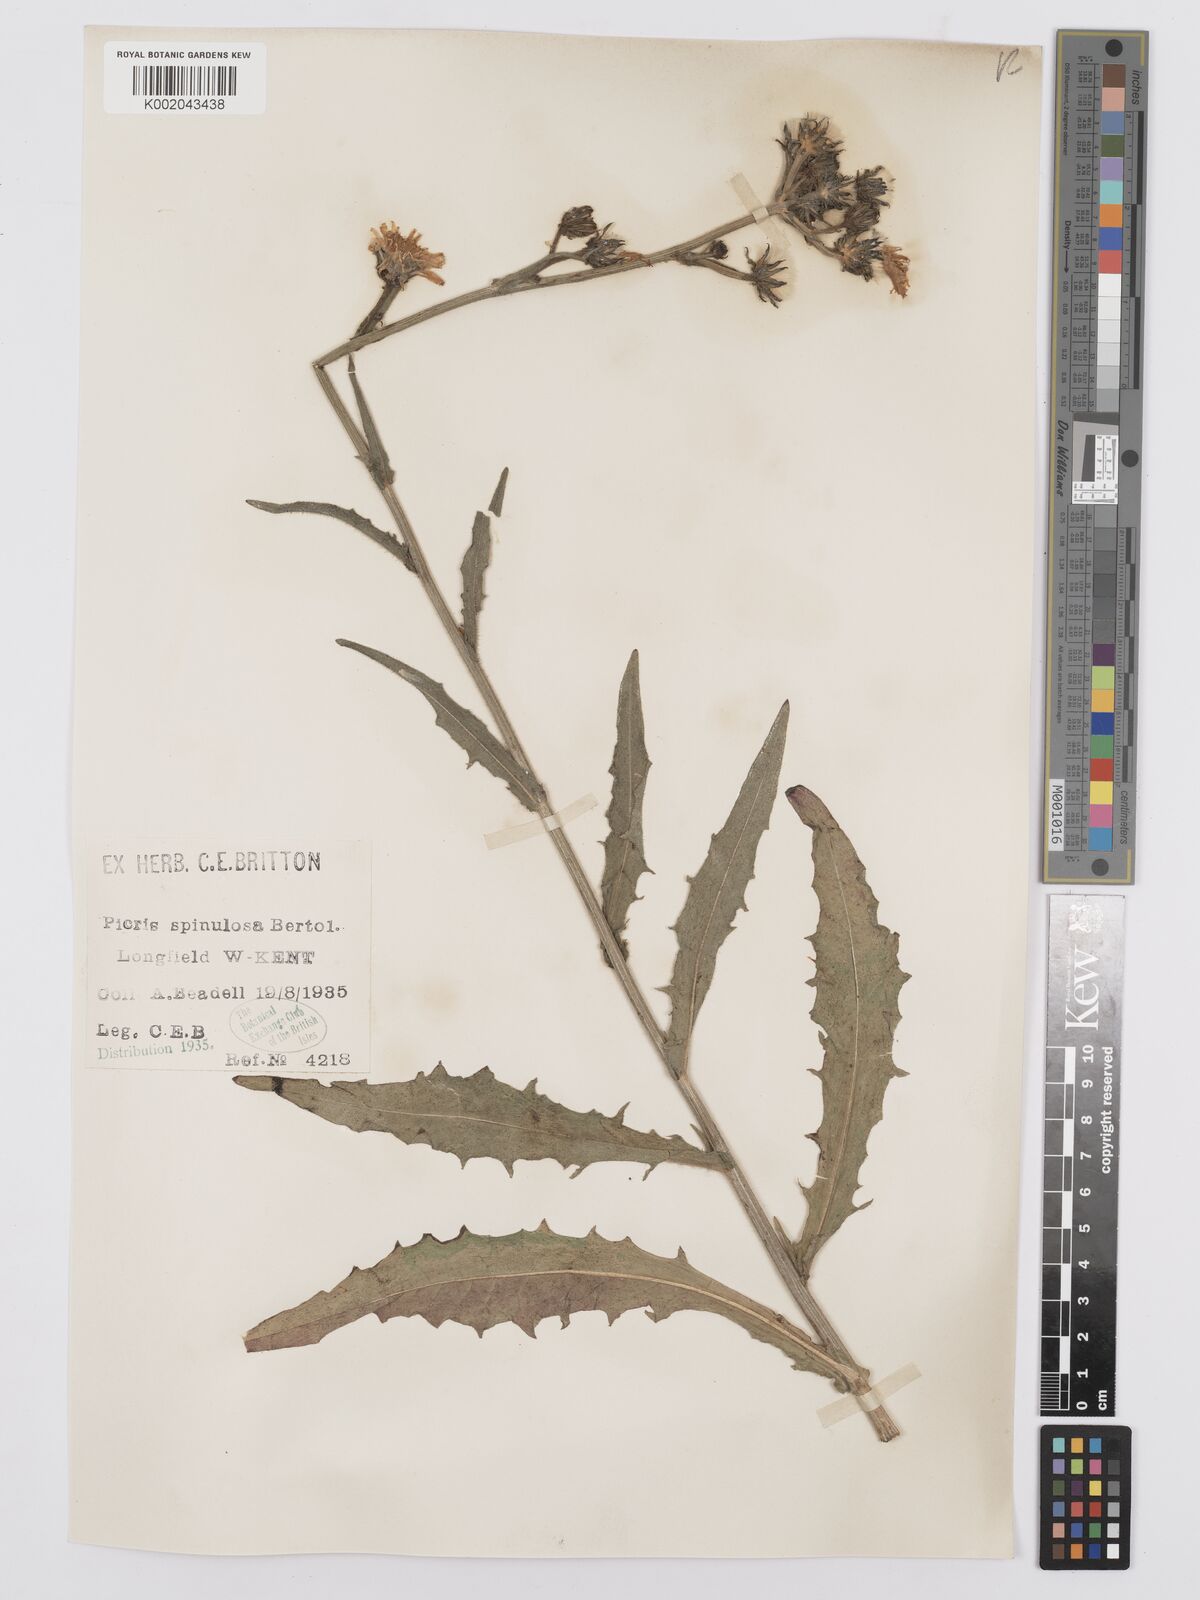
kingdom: Plantae
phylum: Tracheophyta
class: Magnoliopsida
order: Asterales
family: Asteraceae
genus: Picris
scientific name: Picris hieracioides
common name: Hawkweed oxtongue
